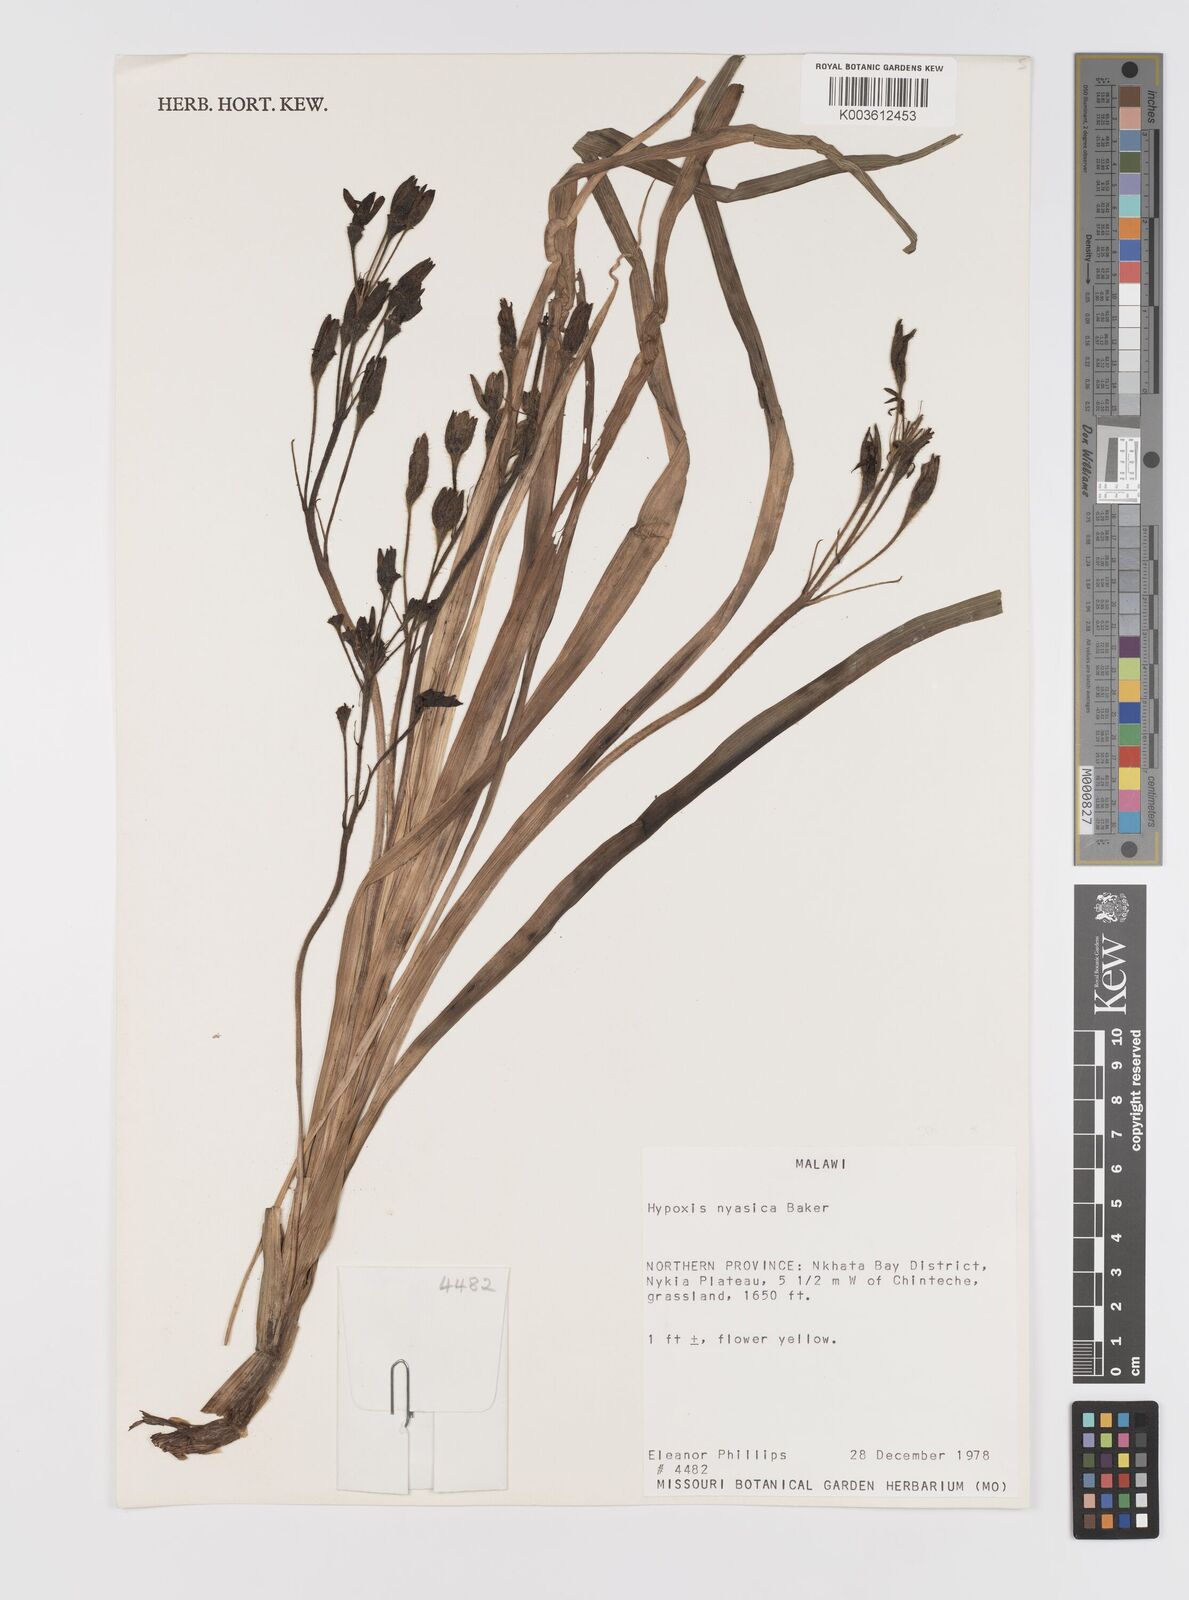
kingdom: Plantae
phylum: Tracheophyta
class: Liliopsida
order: Asparagales
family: Hypoxidaceae
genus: Hypoxis
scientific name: Hypoxis nyasica
